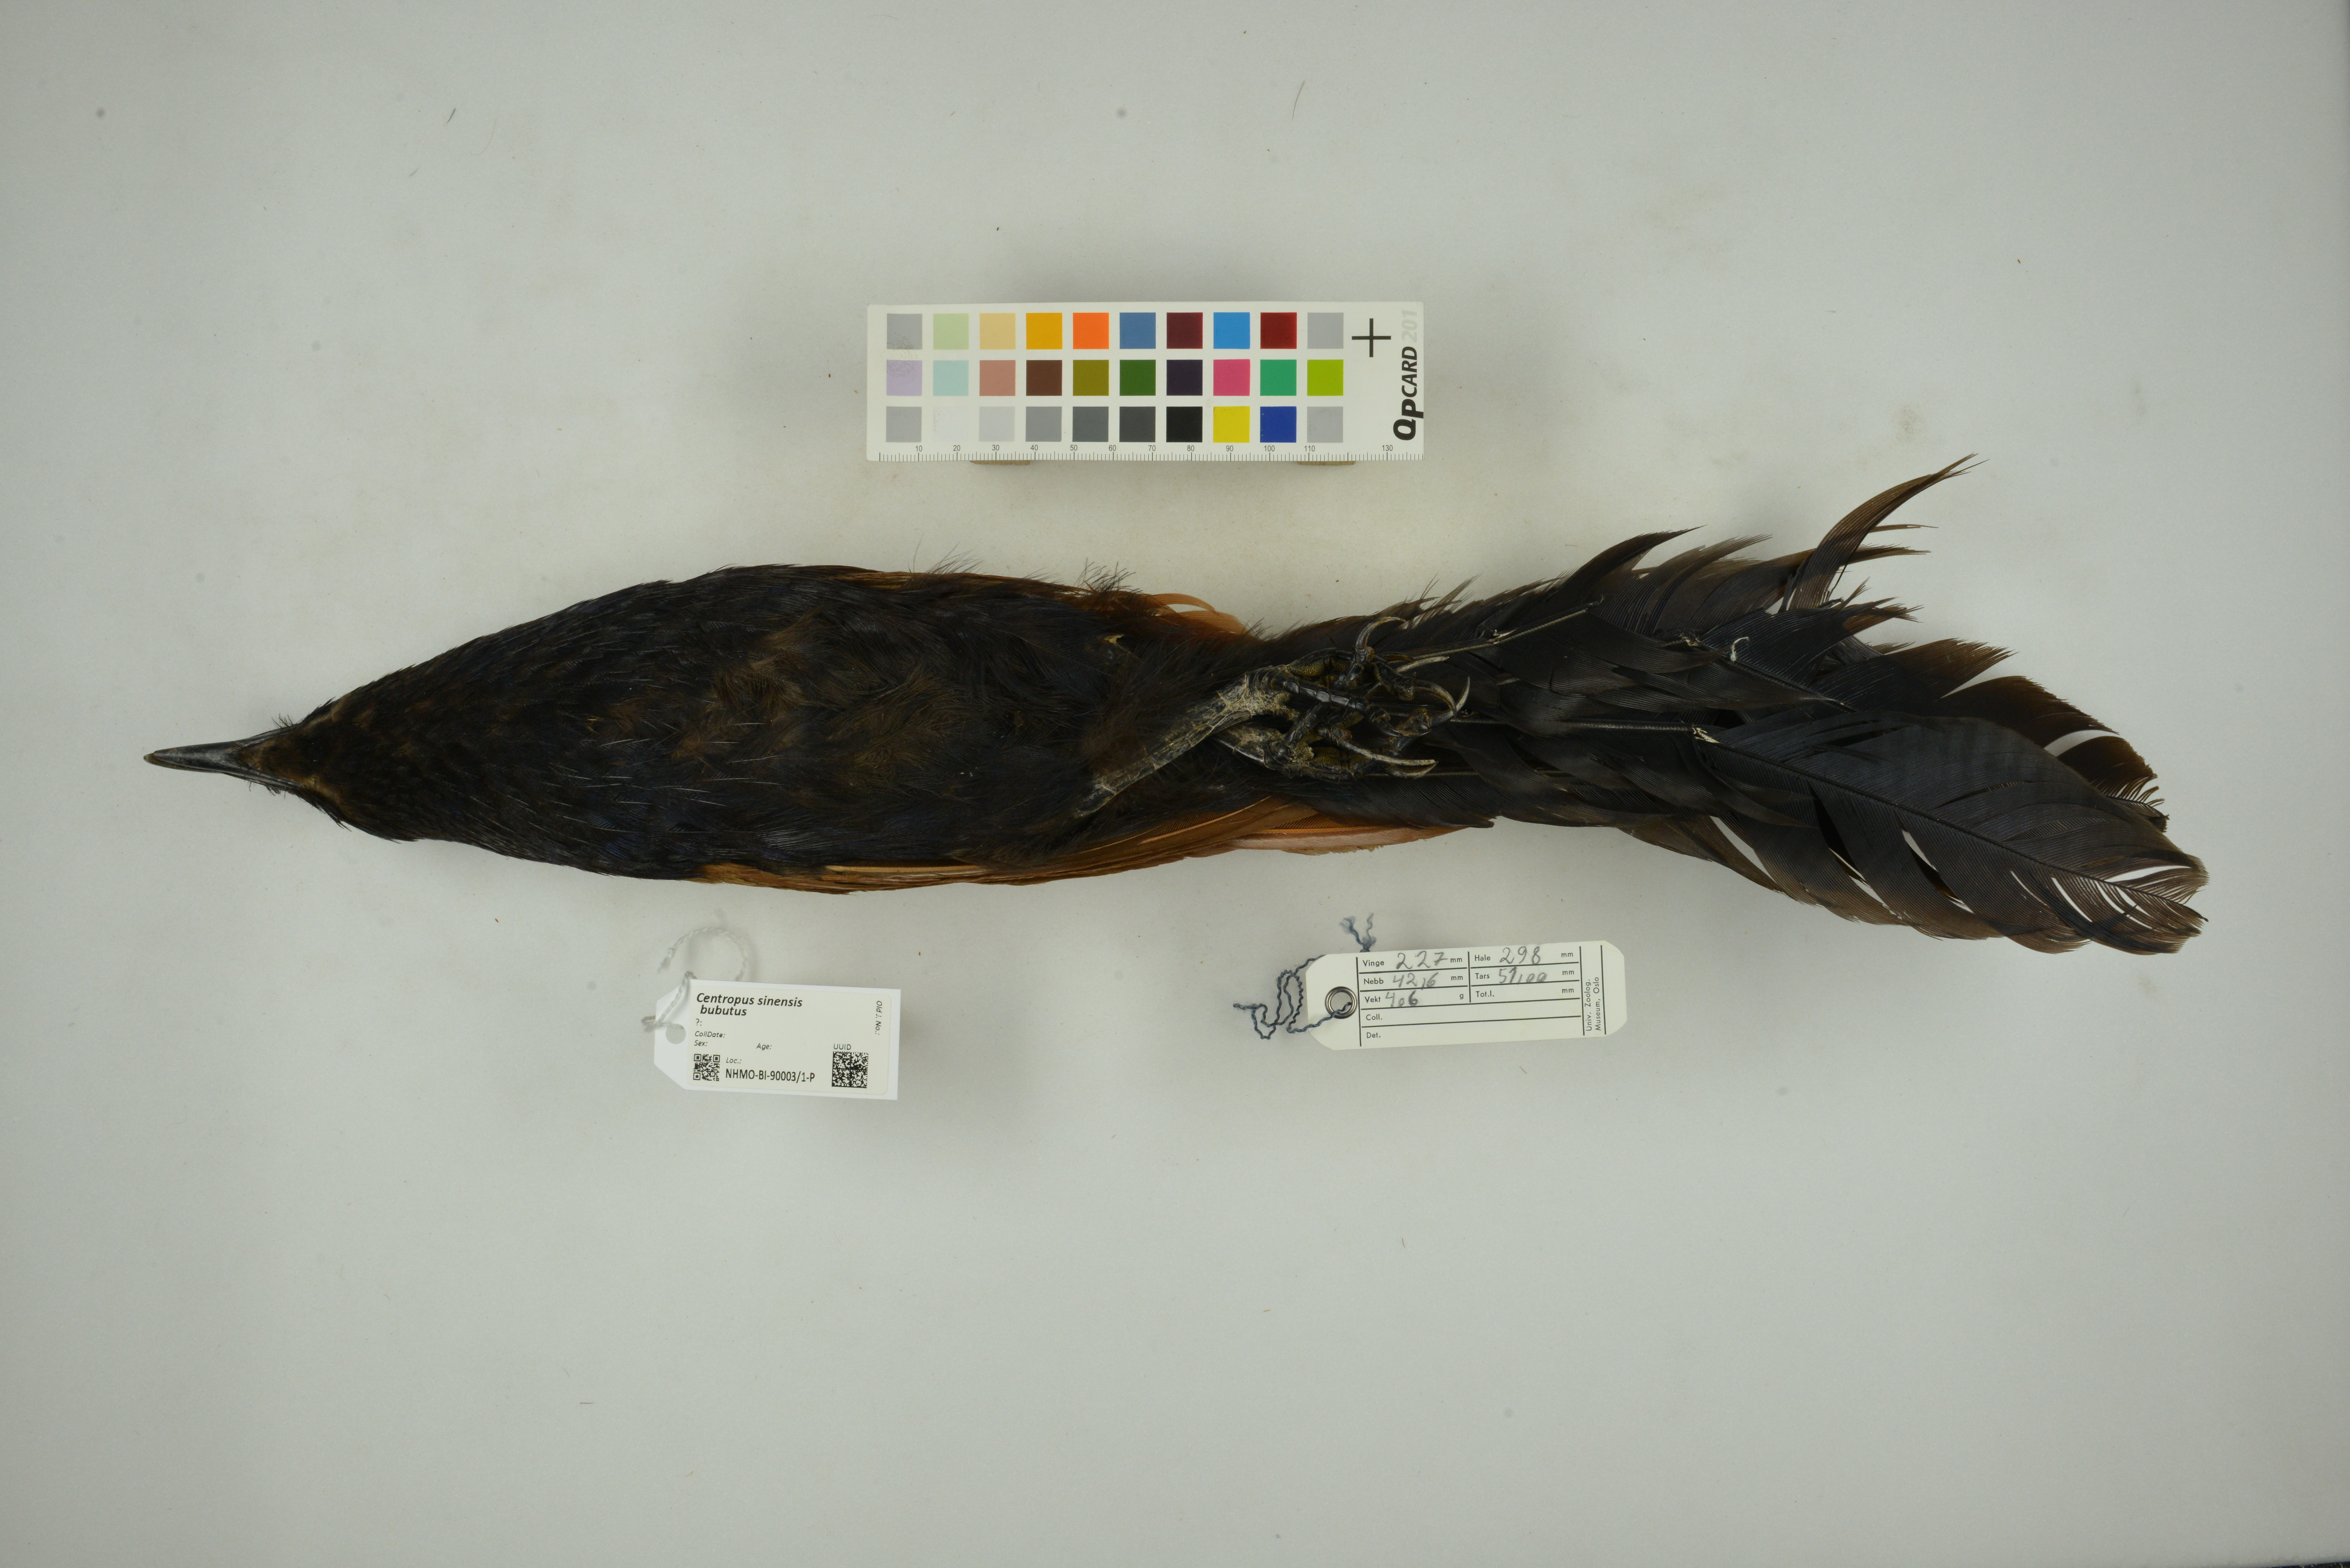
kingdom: Animalia
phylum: Chordata
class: Aves
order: Cuculiformes
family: Cuculidae
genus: Centropus
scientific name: Centropus sinensis
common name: Greater coucal
